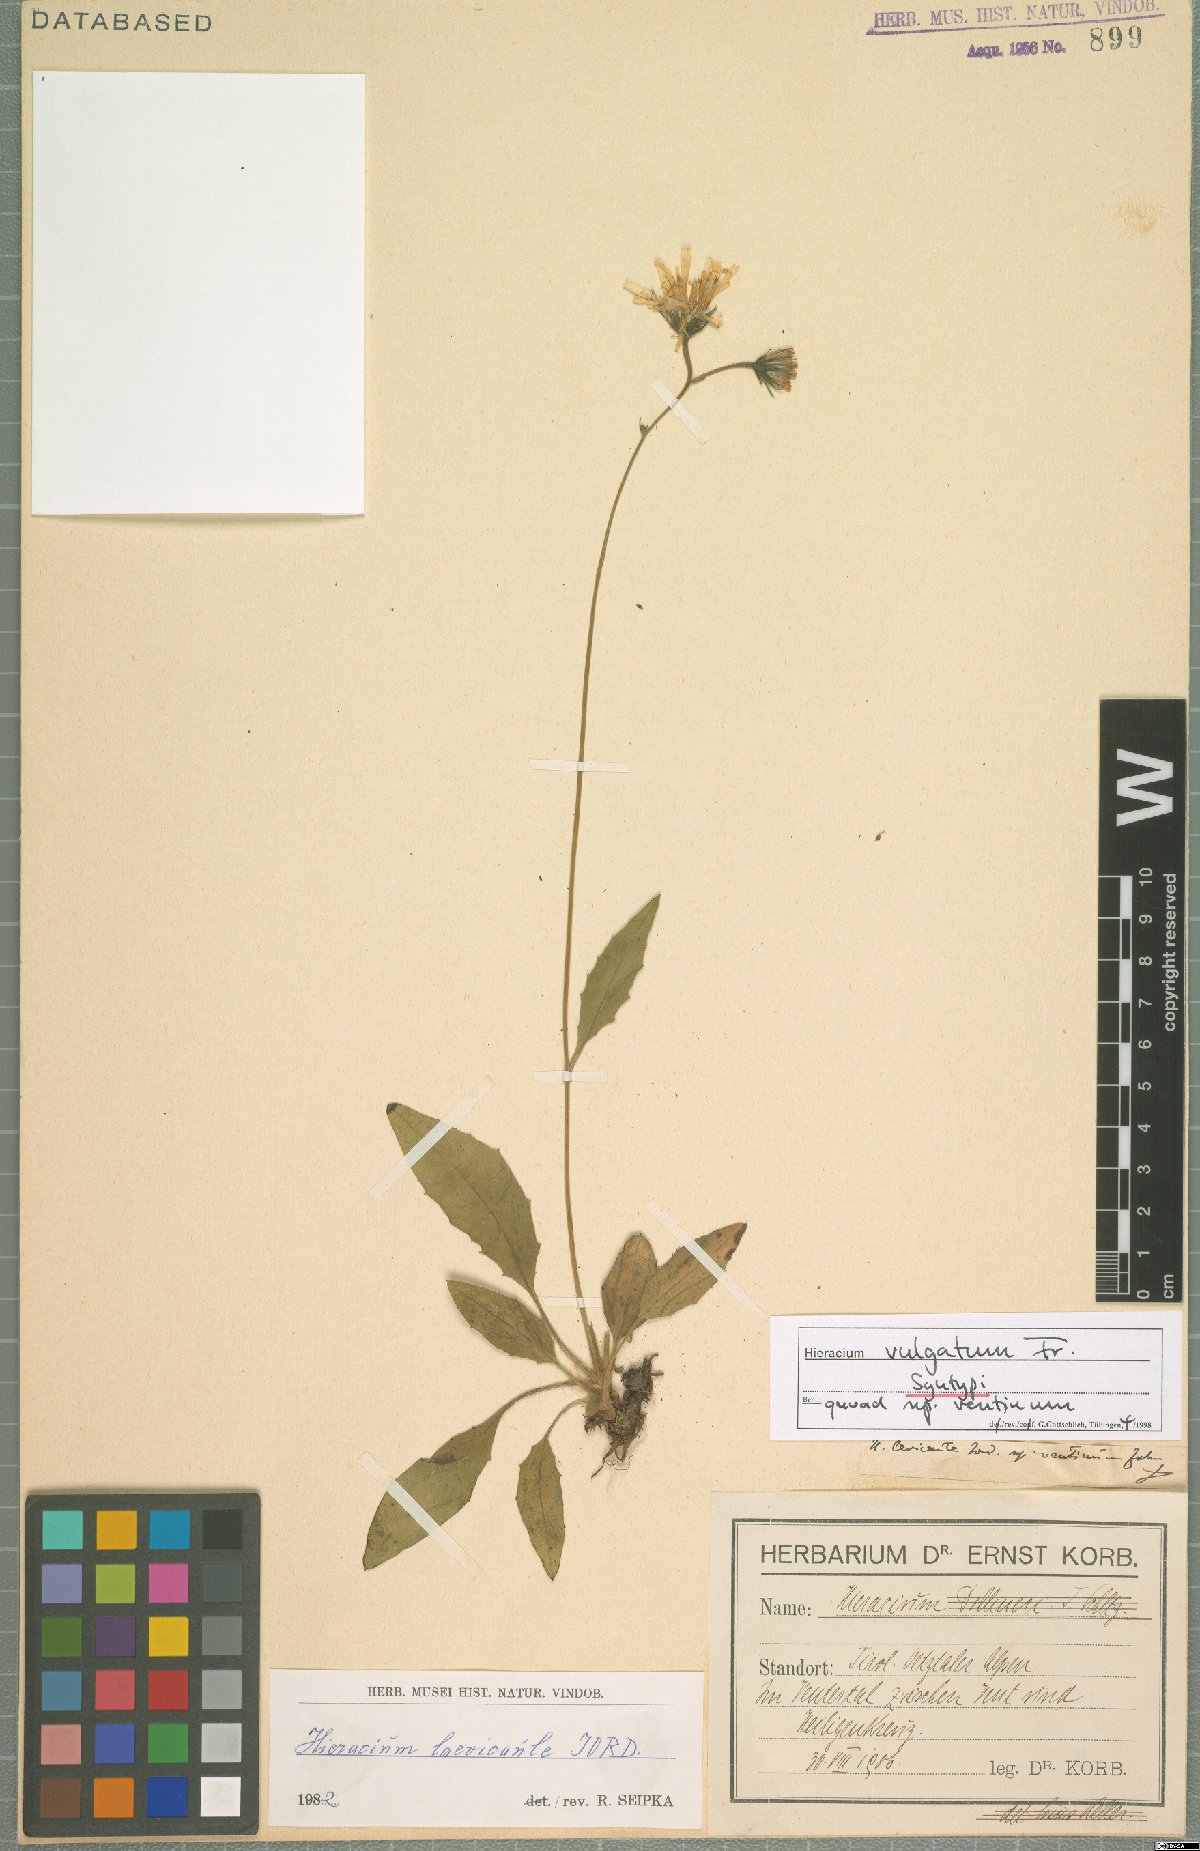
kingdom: Plantae
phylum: Tracheophyta
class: Magnoliopsida
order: Asterales
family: Asteraceae
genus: Hieracium
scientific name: Hieracium lachenalii
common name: Common hawkweed
